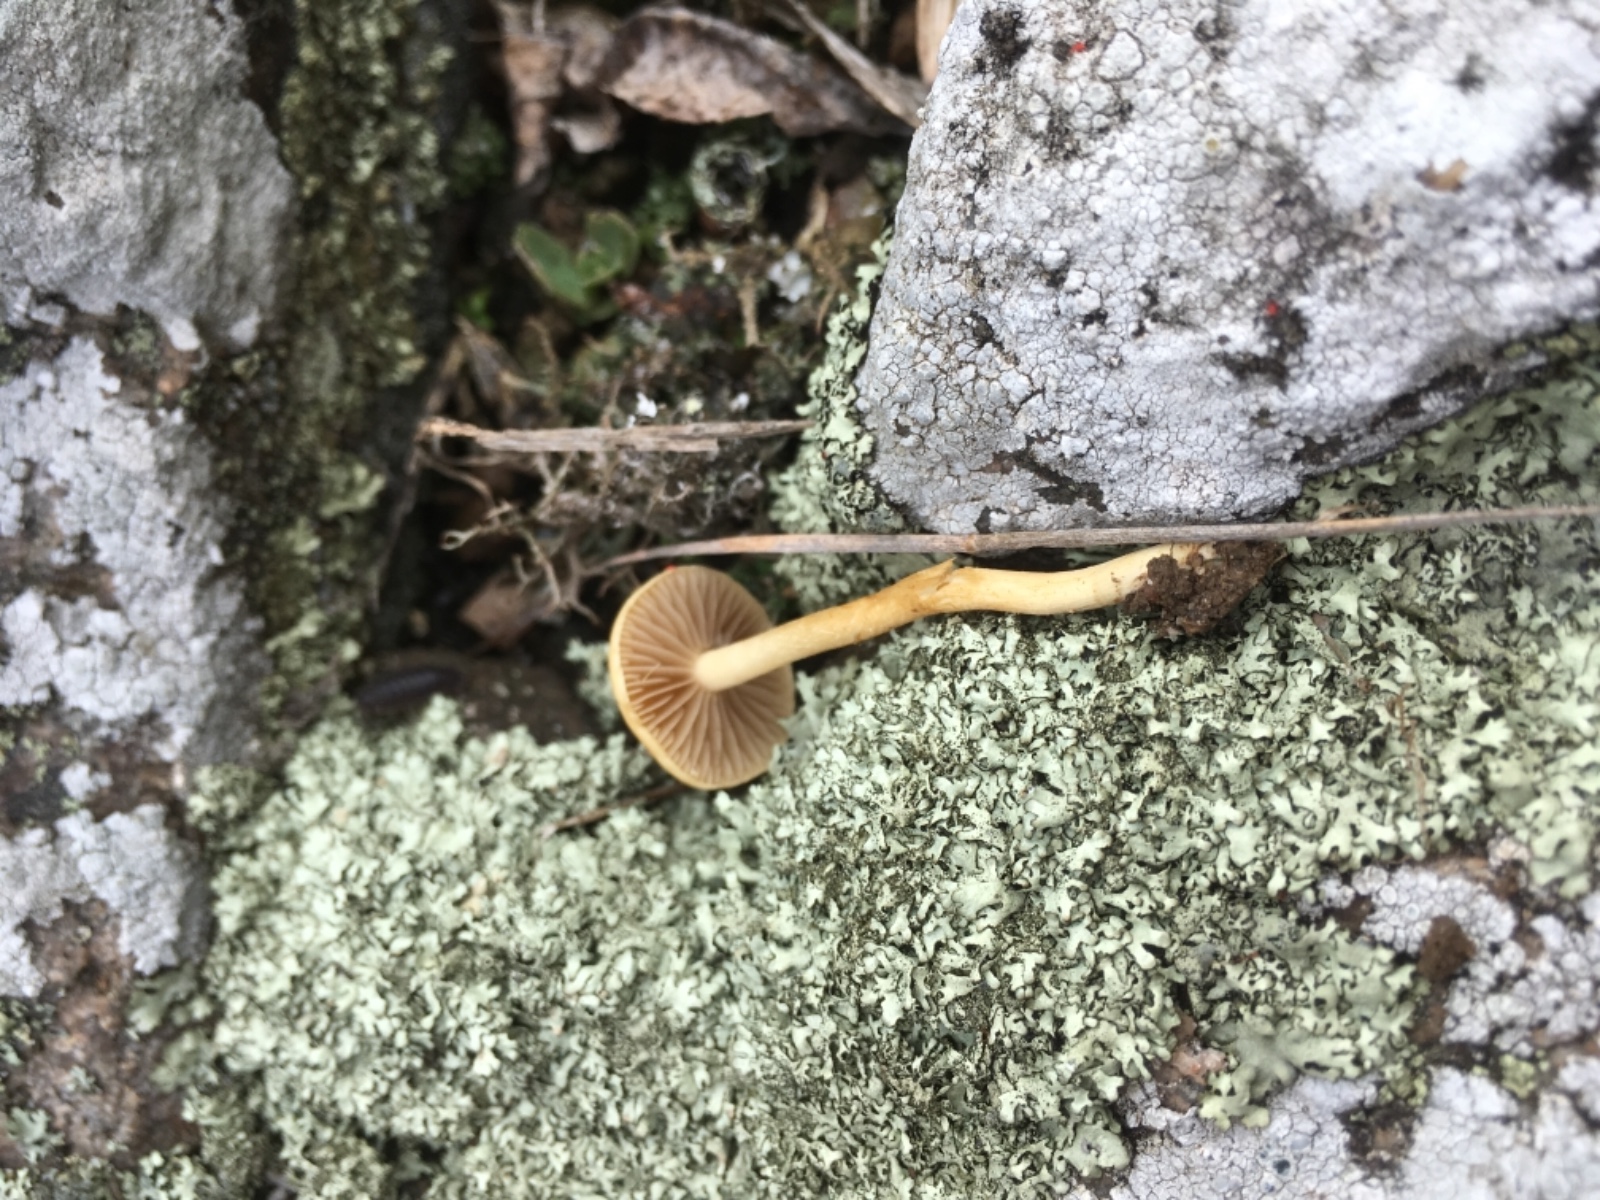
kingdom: Fungi
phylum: Basidiomycota
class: Agaricomycetes
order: Agaricales
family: Strophariaceae
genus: Agrocybe
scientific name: Agrocybe pediades
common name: almindelig agerhat
